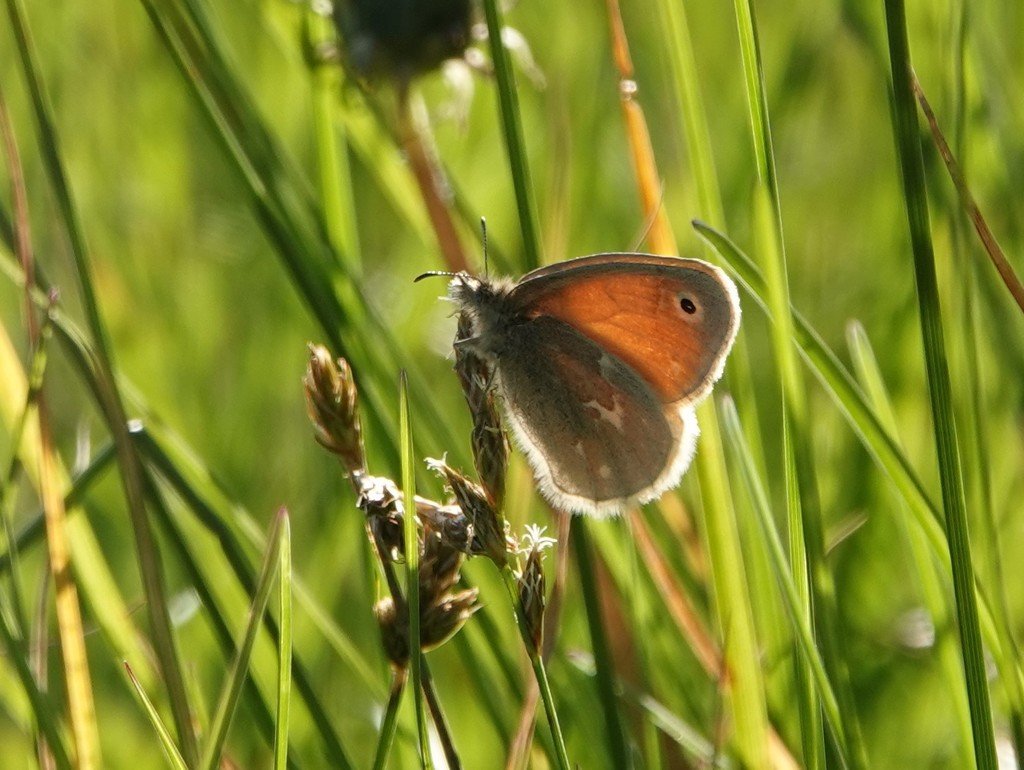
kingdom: Animalia
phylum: Arthropoda
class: Insecta
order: Lepidoptera
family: Nymphalidae
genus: Coenonympha
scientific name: Coenonympha tullia
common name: Large Heath
